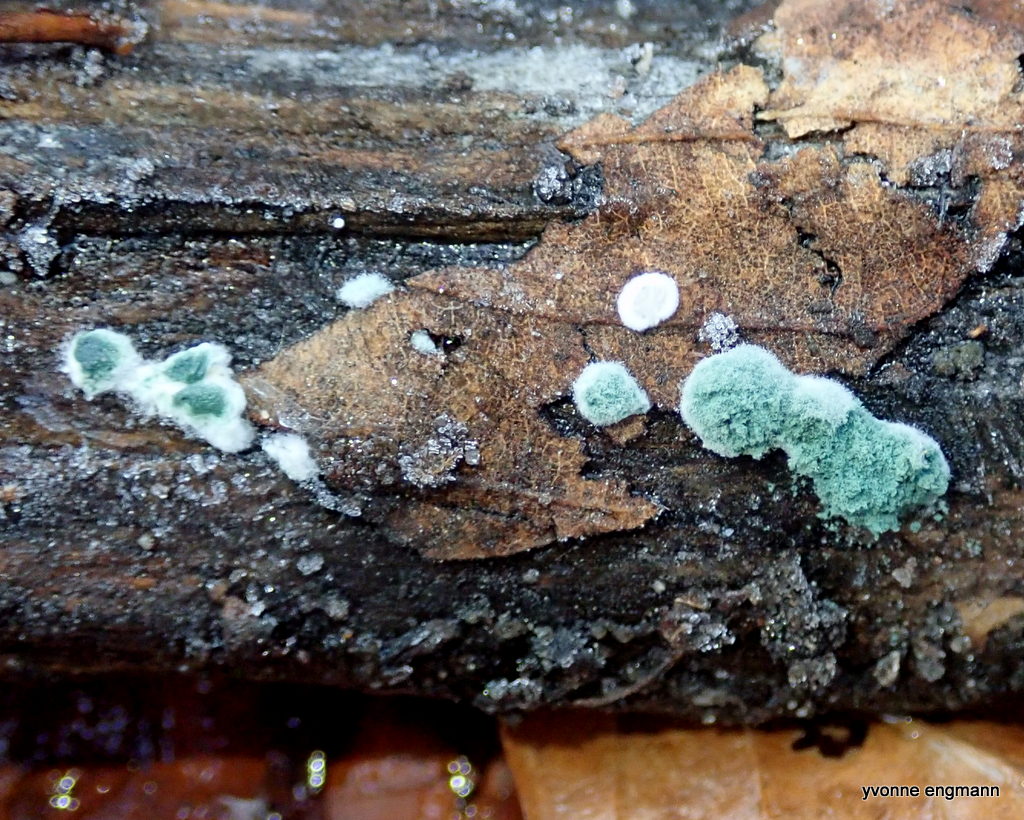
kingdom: Fungi
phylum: Ascomycota
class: Sordariomycetes
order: Hypocreales
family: Hypocreaceae
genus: Trichoderma
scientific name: Trichoderma
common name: kødkerne
